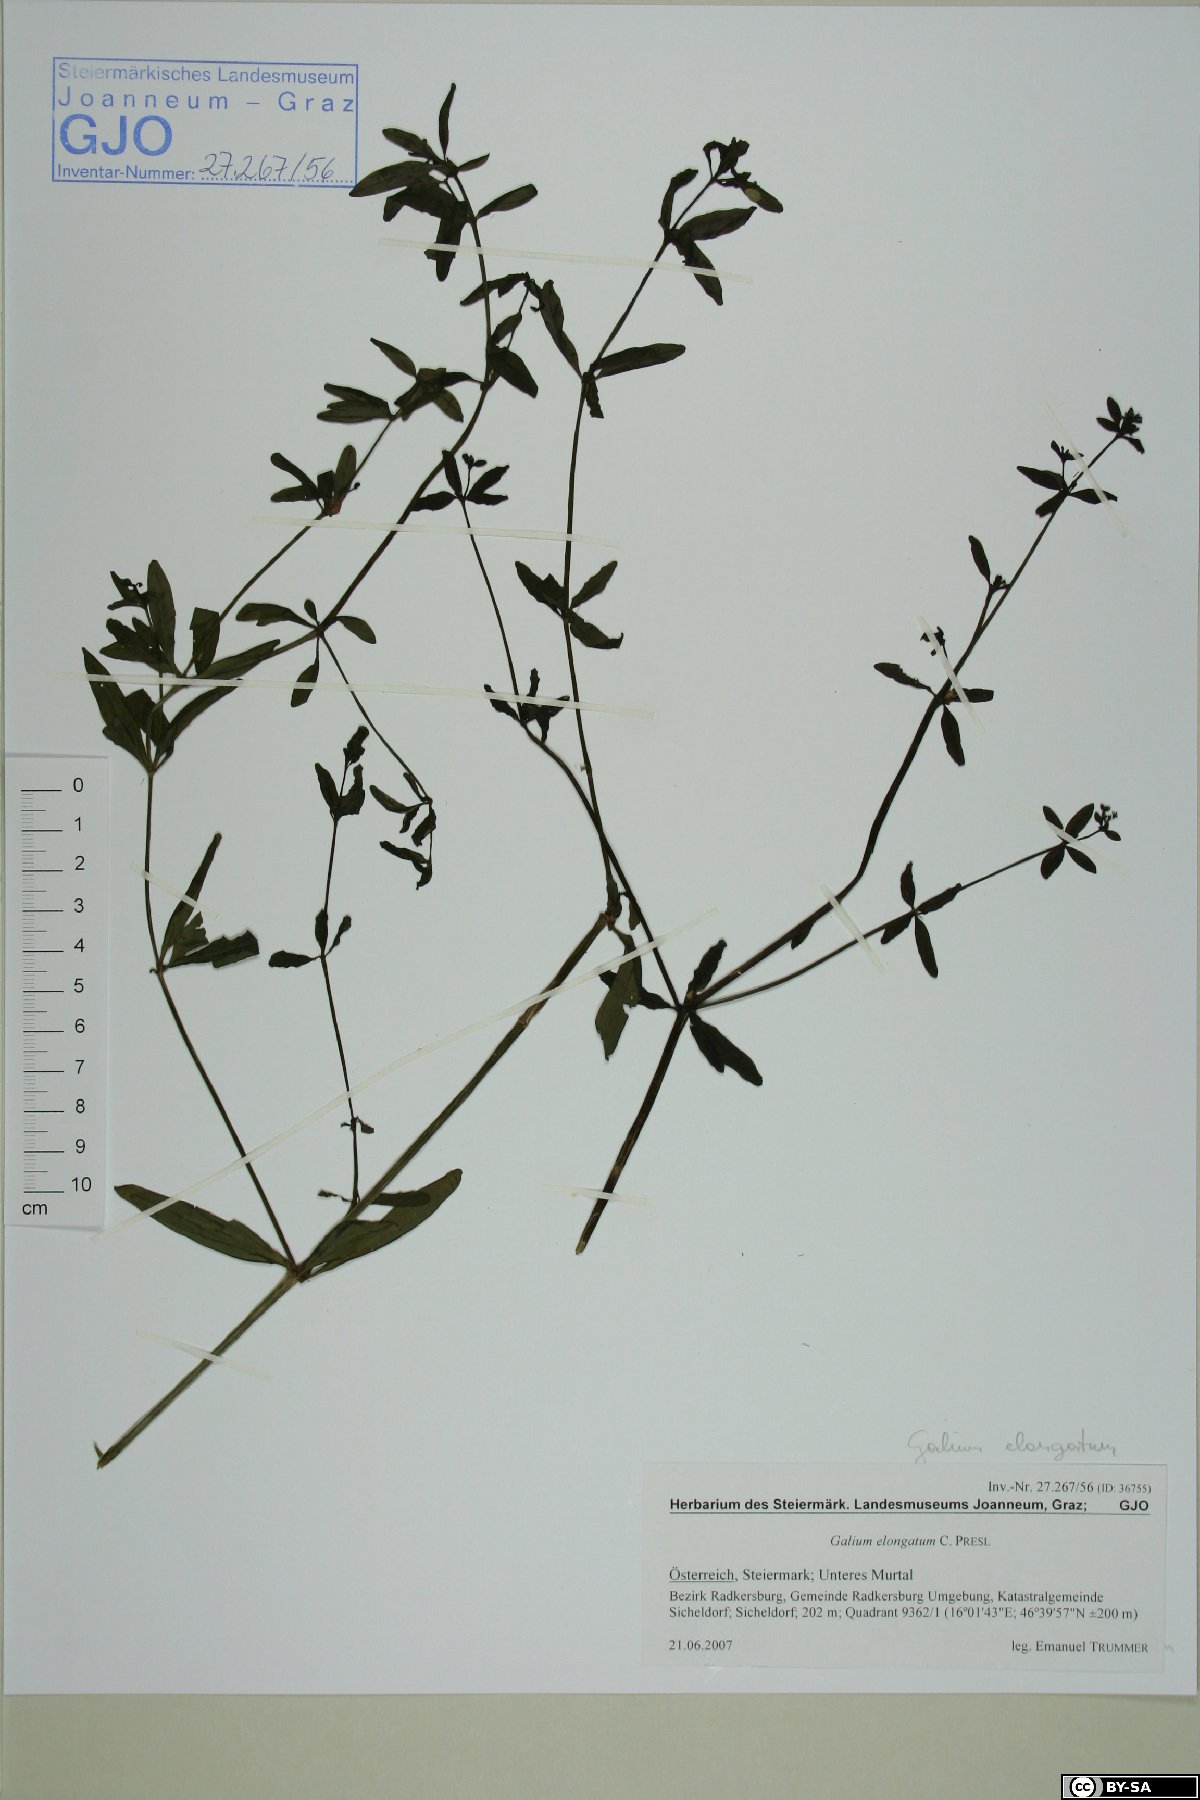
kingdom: Plantae
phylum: Tracheophyta
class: Magnoliopsida
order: Gentianales
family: Rubiaceae
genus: Galium
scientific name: Galium elongatum
